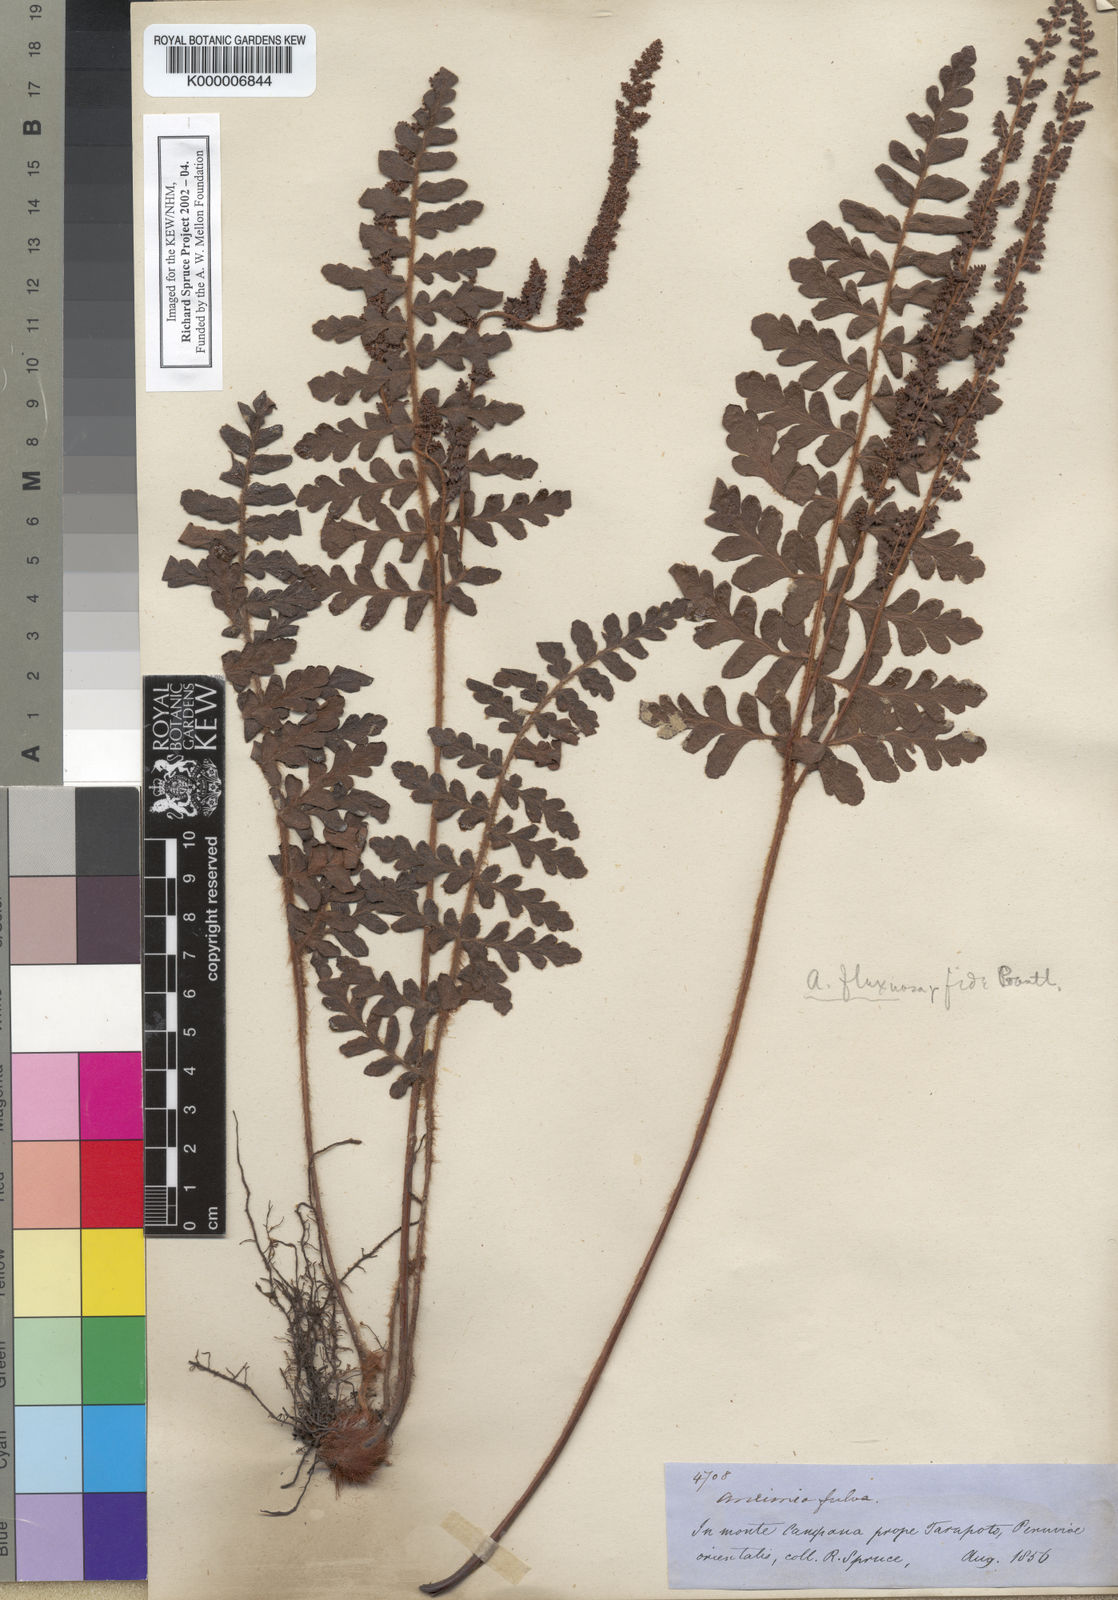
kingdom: Plantae
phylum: Tracheophyta
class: Polypodiopsida
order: Schizaeales
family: Anemiaceae
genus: Anemia
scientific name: Anemia flexuosa
